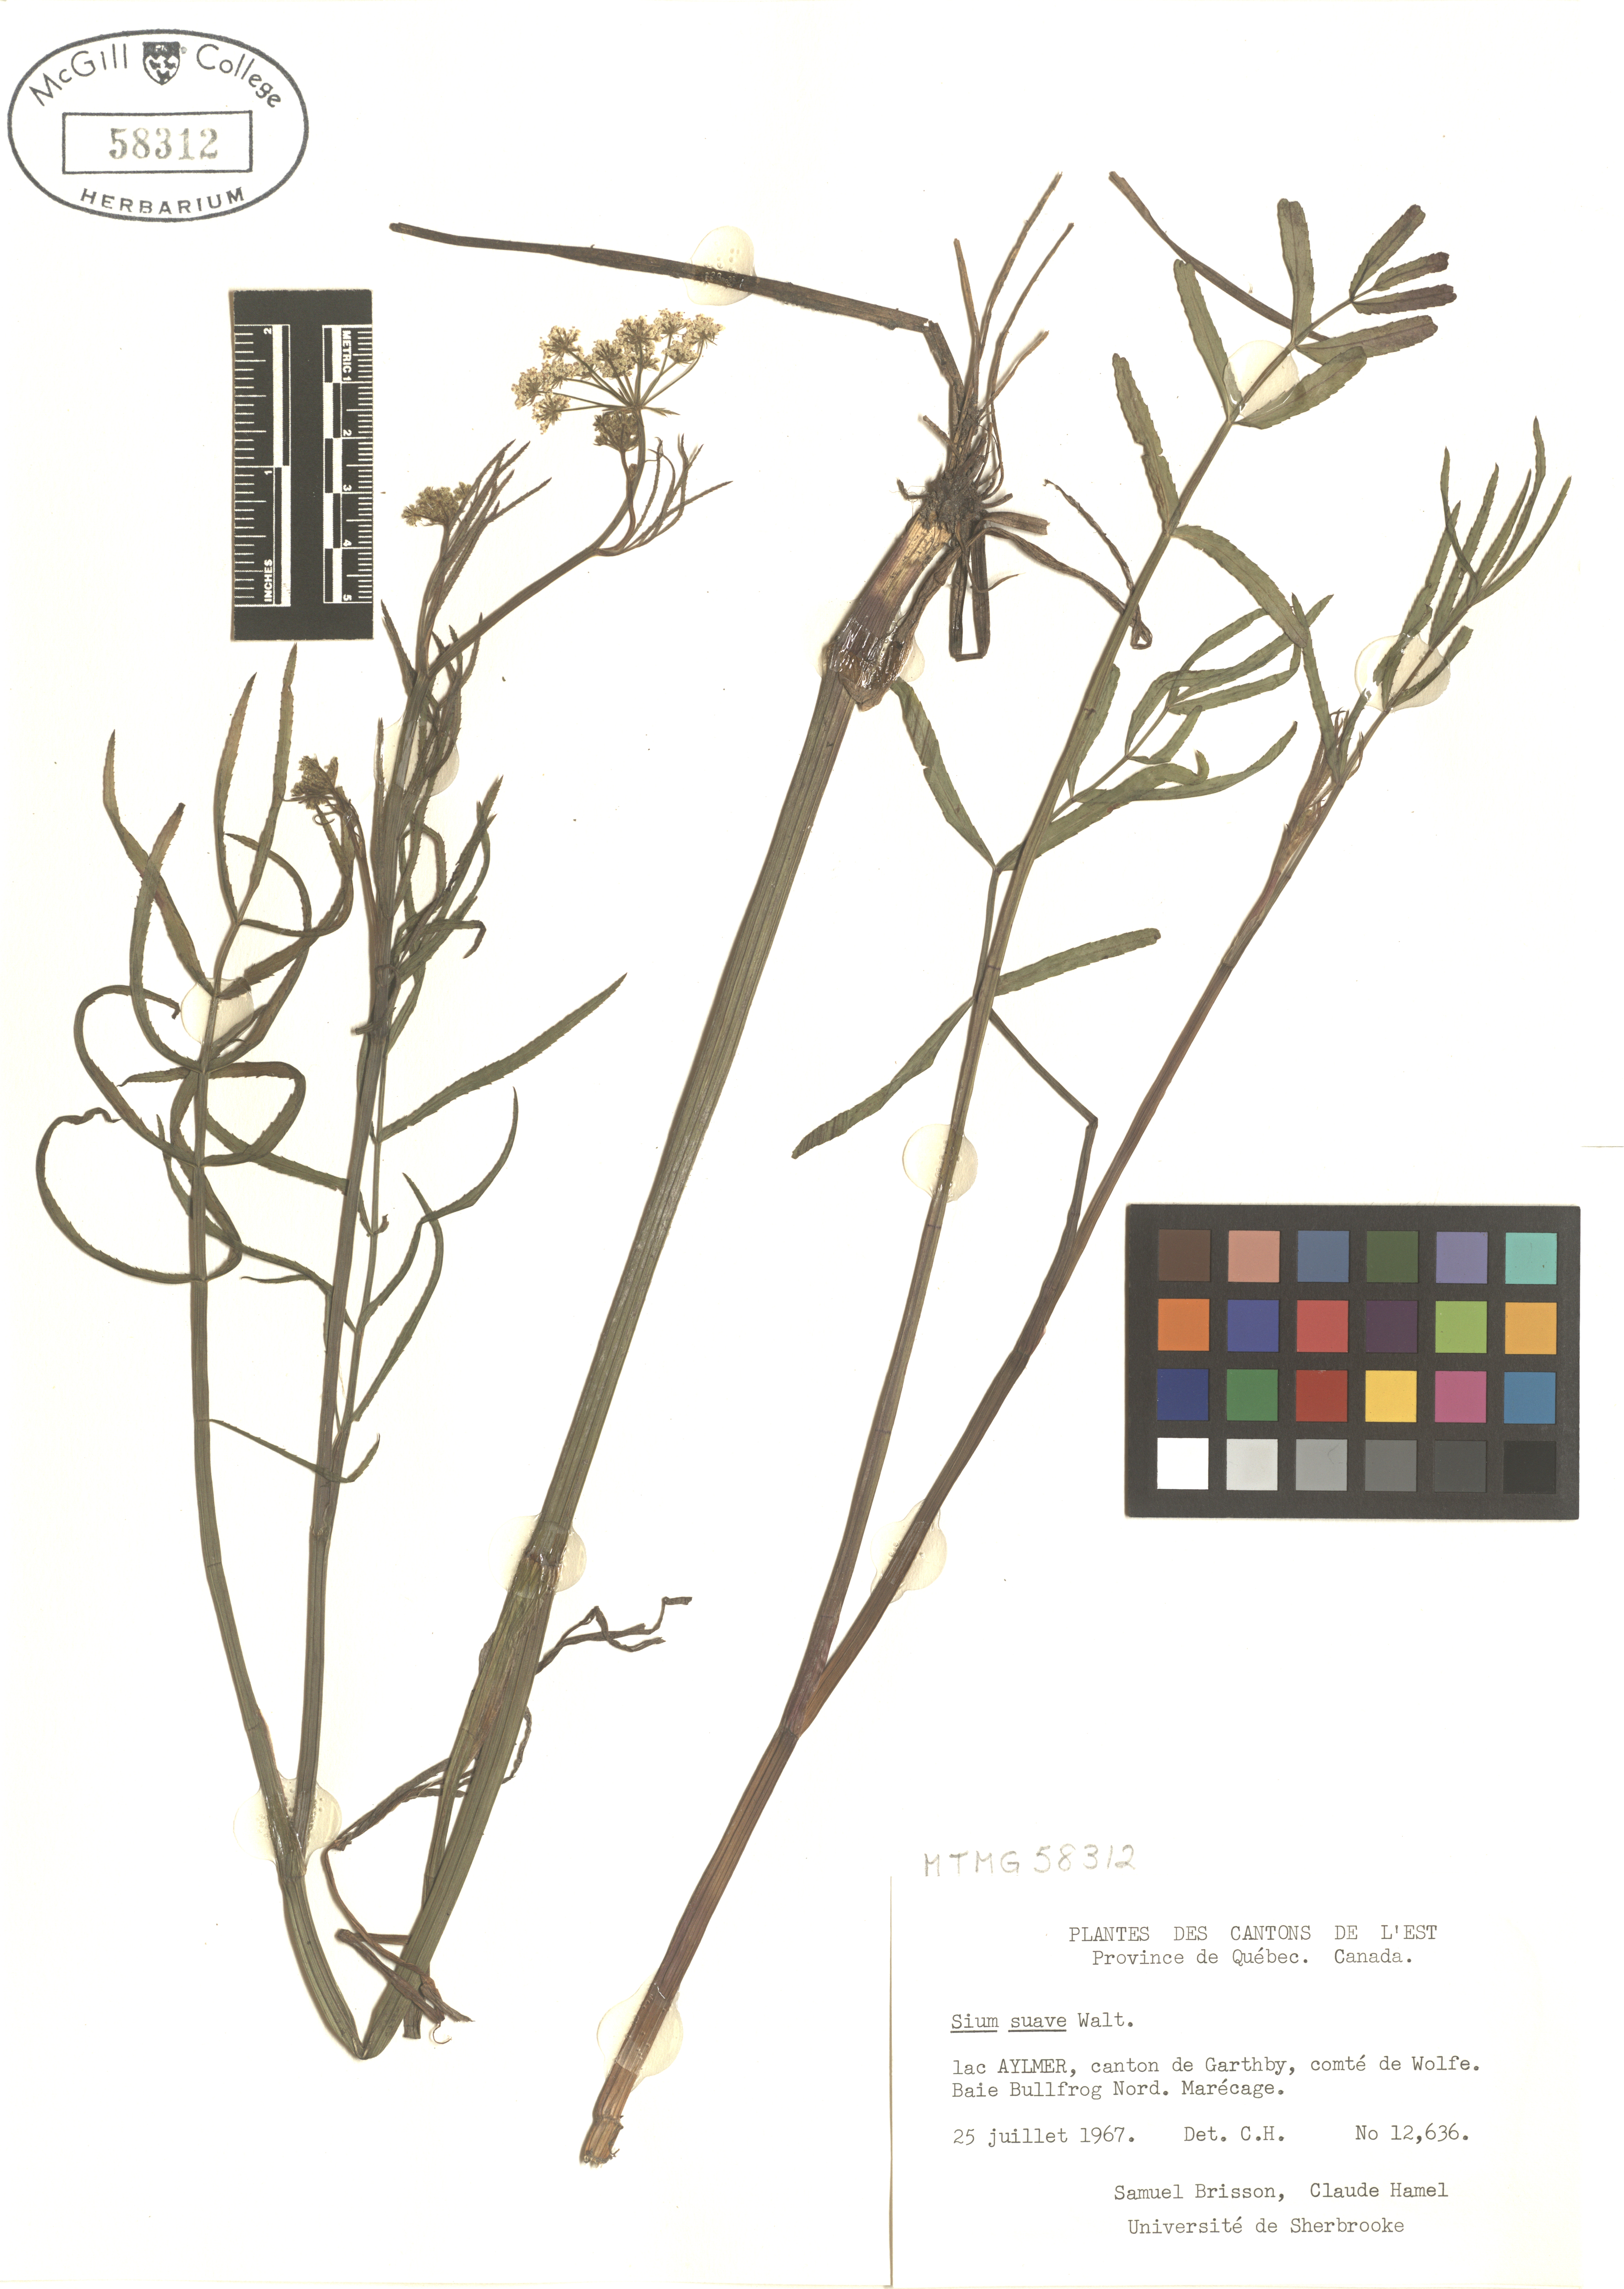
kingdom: Plantae
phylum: Tracheophyta
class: Magnoliopsida
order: Apiales
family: Apiaceae
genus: Sium
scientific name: Sium suave
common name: Hemlock water-parsnip
